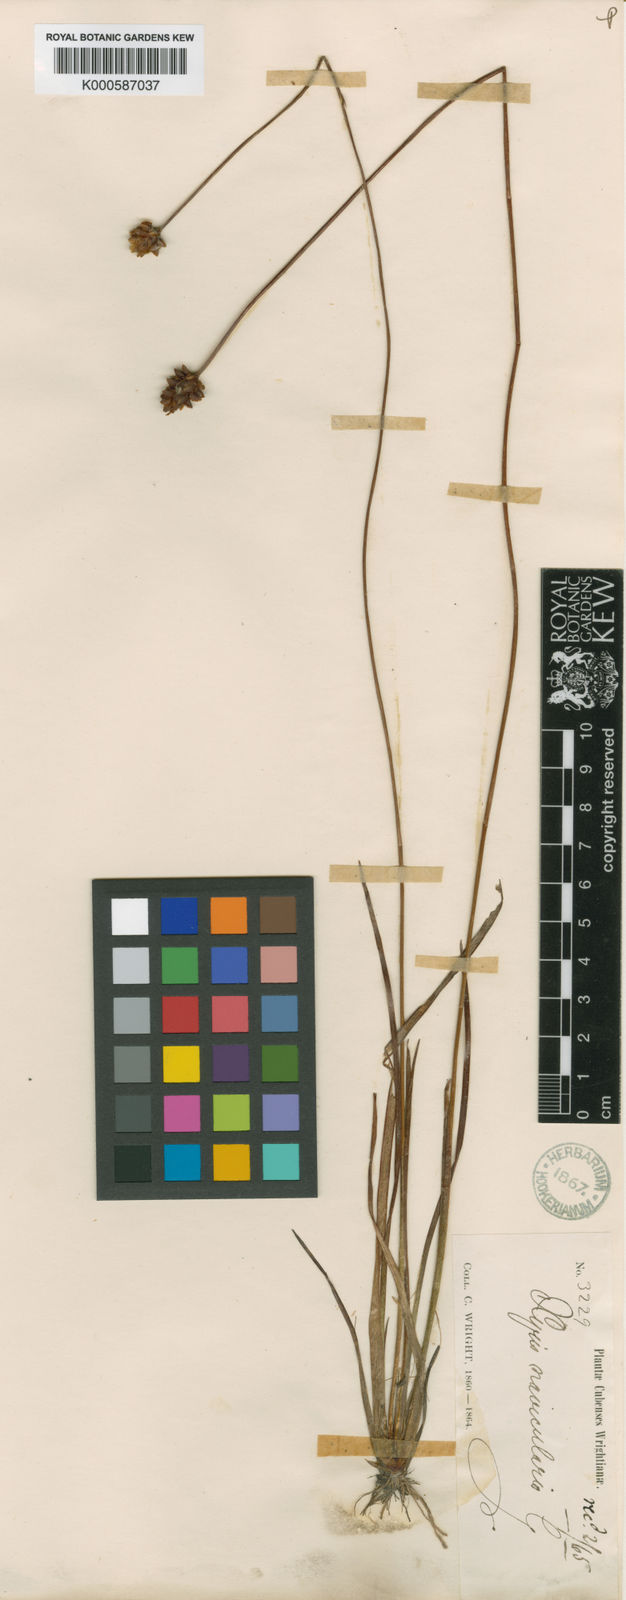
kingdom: Plantae
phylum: Tracheophyta
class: Liliopsida
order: Poales
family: Xyridaceae
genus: Xyris
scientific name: Xyris navicularis
